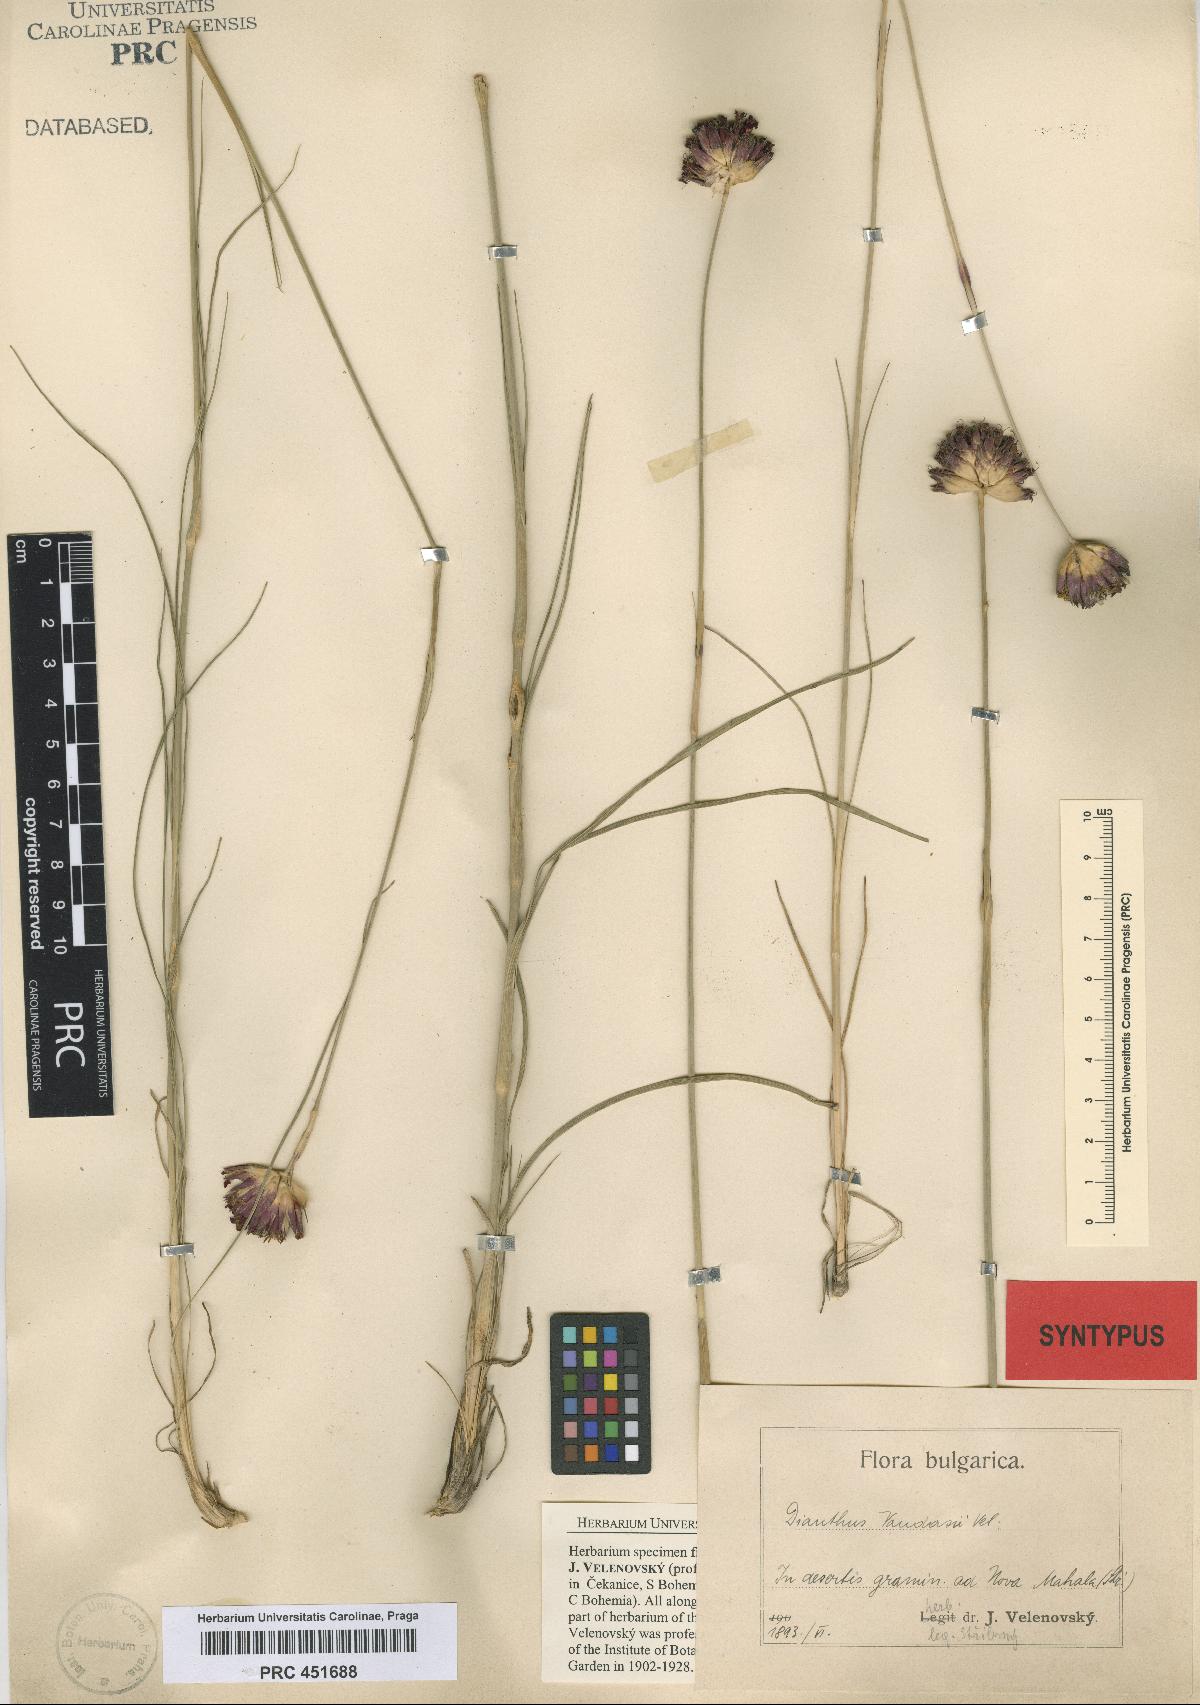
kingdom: Plantae
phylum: Tracheophyta
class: Magnoliopsida
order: Caryophyllales
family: Caryophyllaceae
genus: Dianthus
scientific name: Dianthus giganteus
